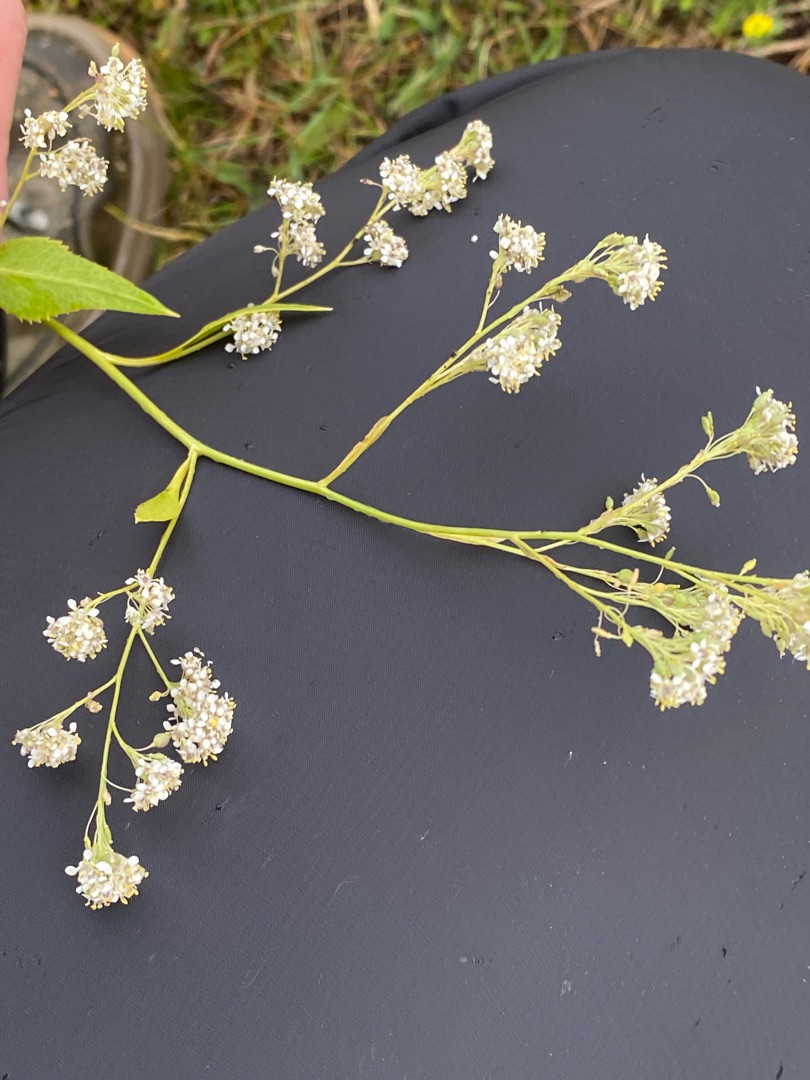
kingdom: Plantae
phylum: Tracheophyta
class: Magnoliopsida
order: Brassicales
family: Brassicaceae
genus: Lepidium
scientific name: Lepidium latifolium
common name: Strand-karse
